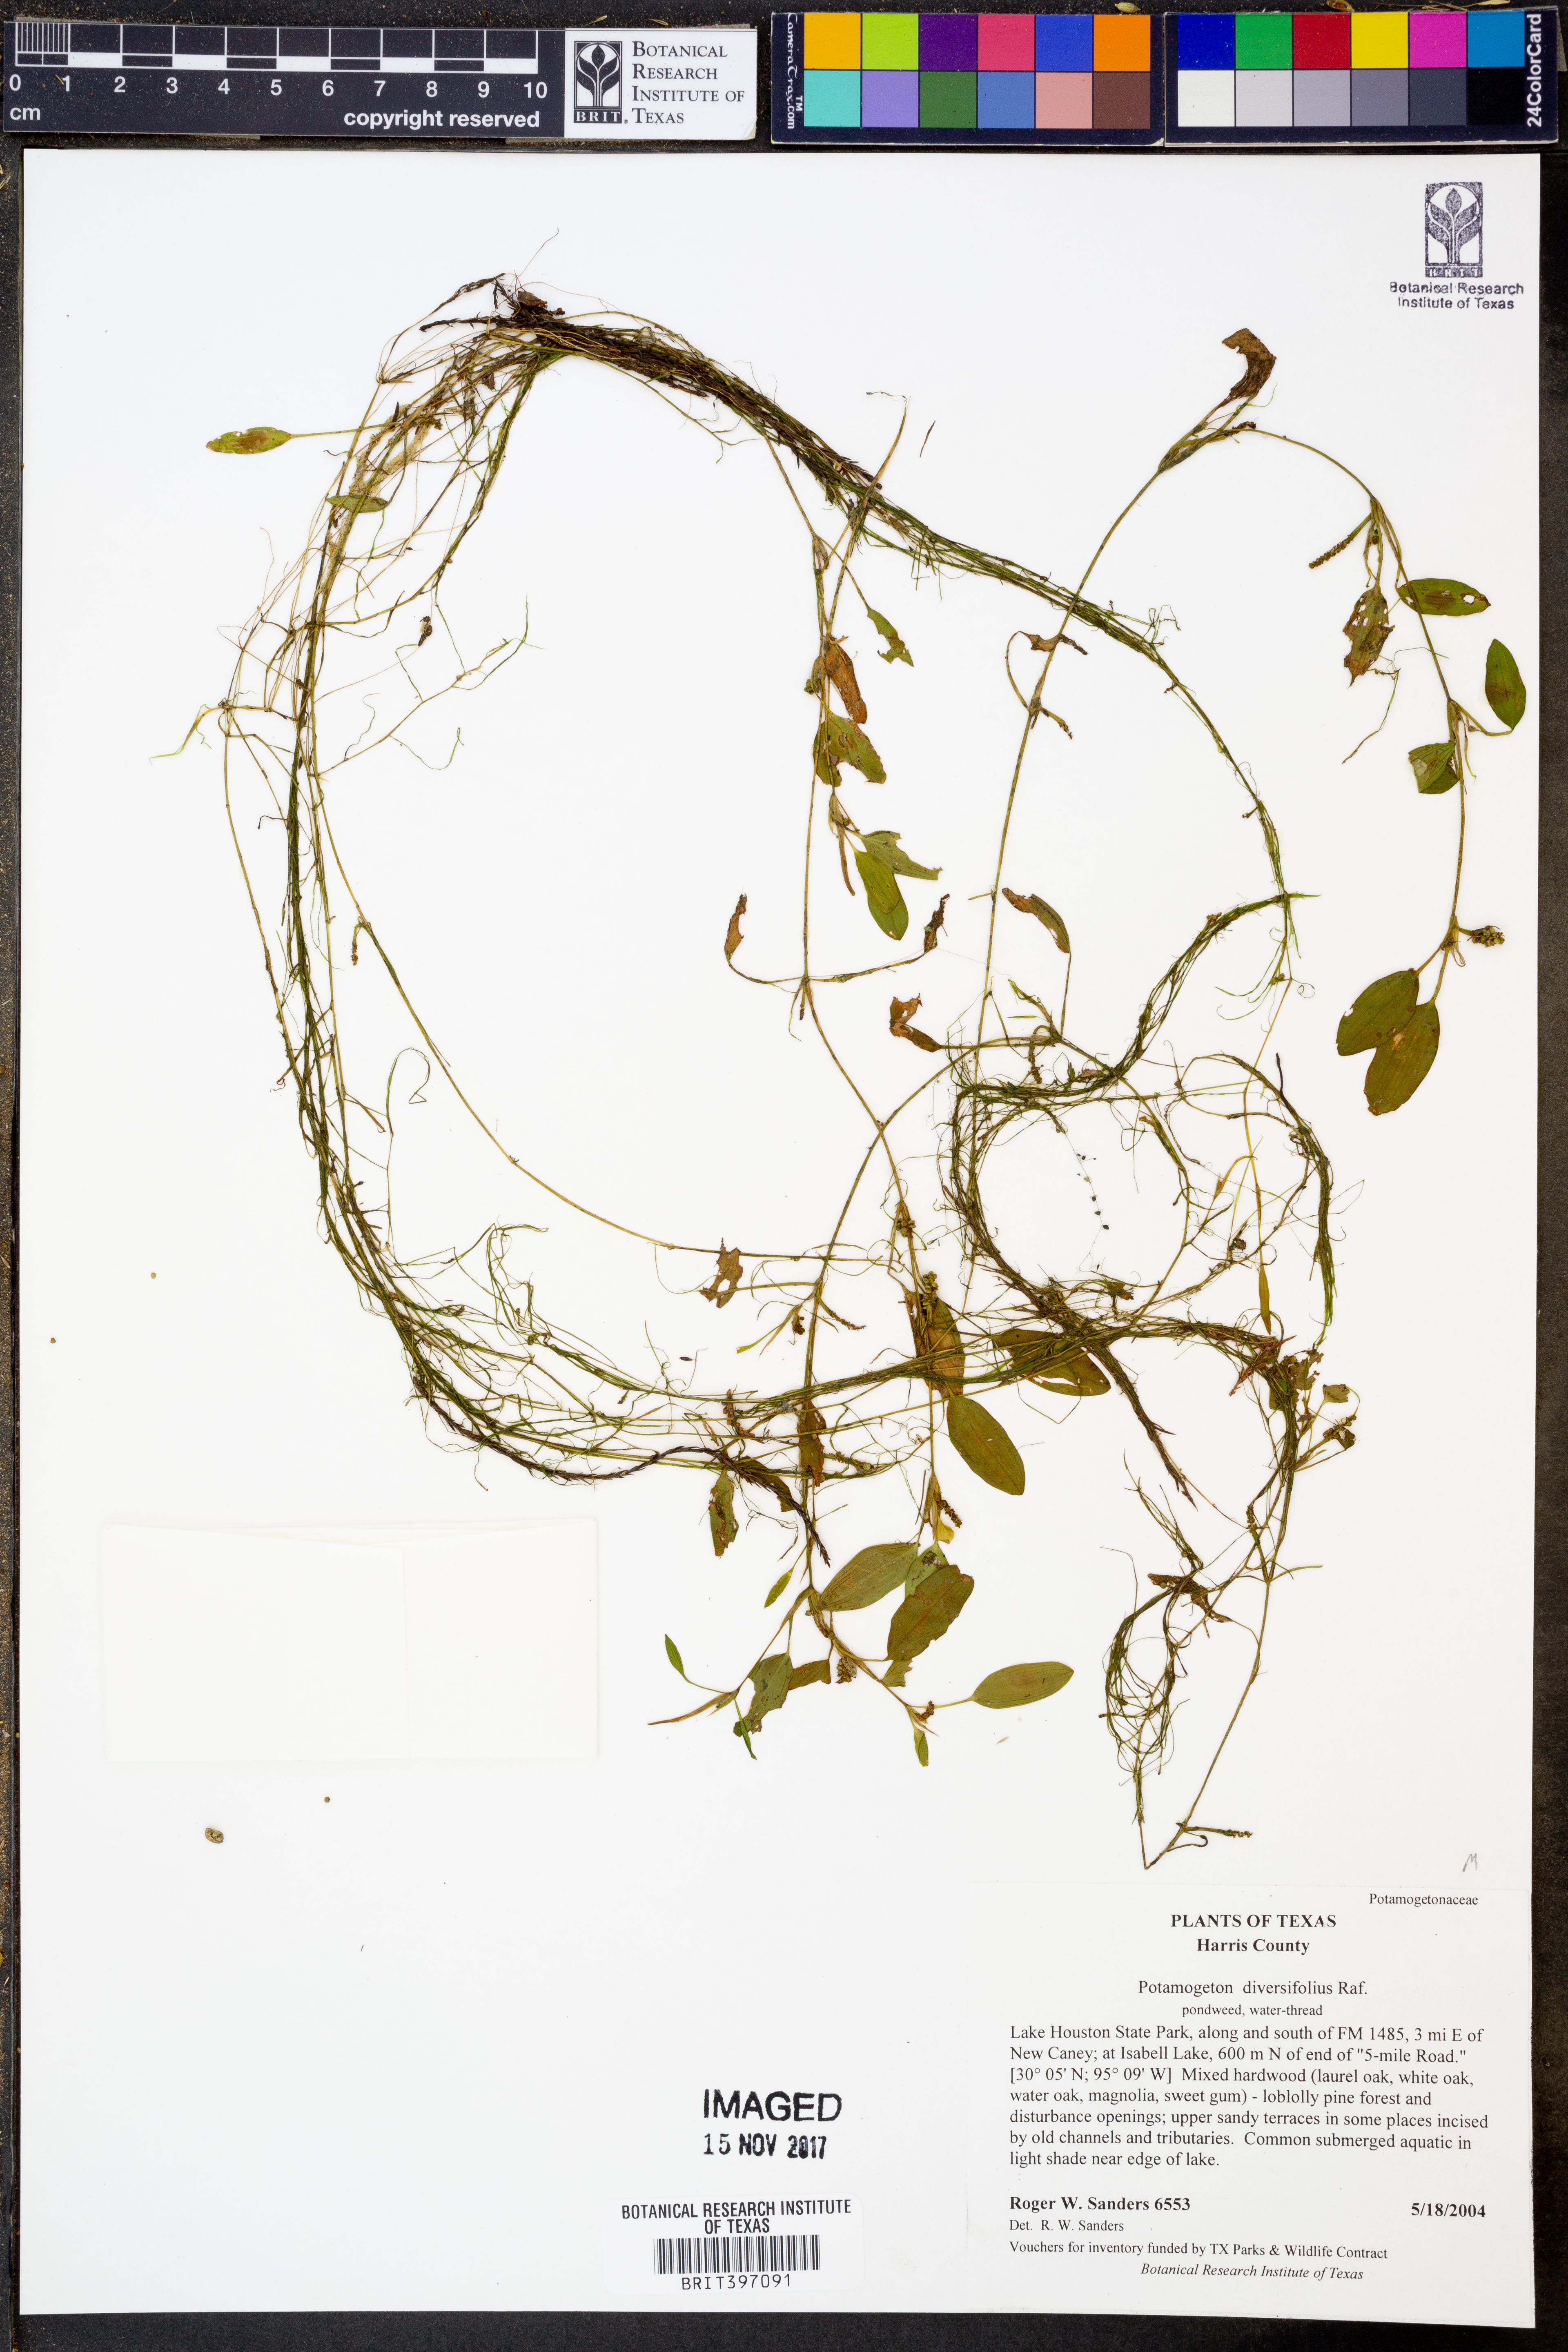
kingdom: Plantae
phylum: Tracheophyta
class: Liliopsida
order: Alismatales
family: Potamogetonaceae
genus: Potamogeton
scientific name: Potamogeton diversifolius
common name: Water-thread pondweed
